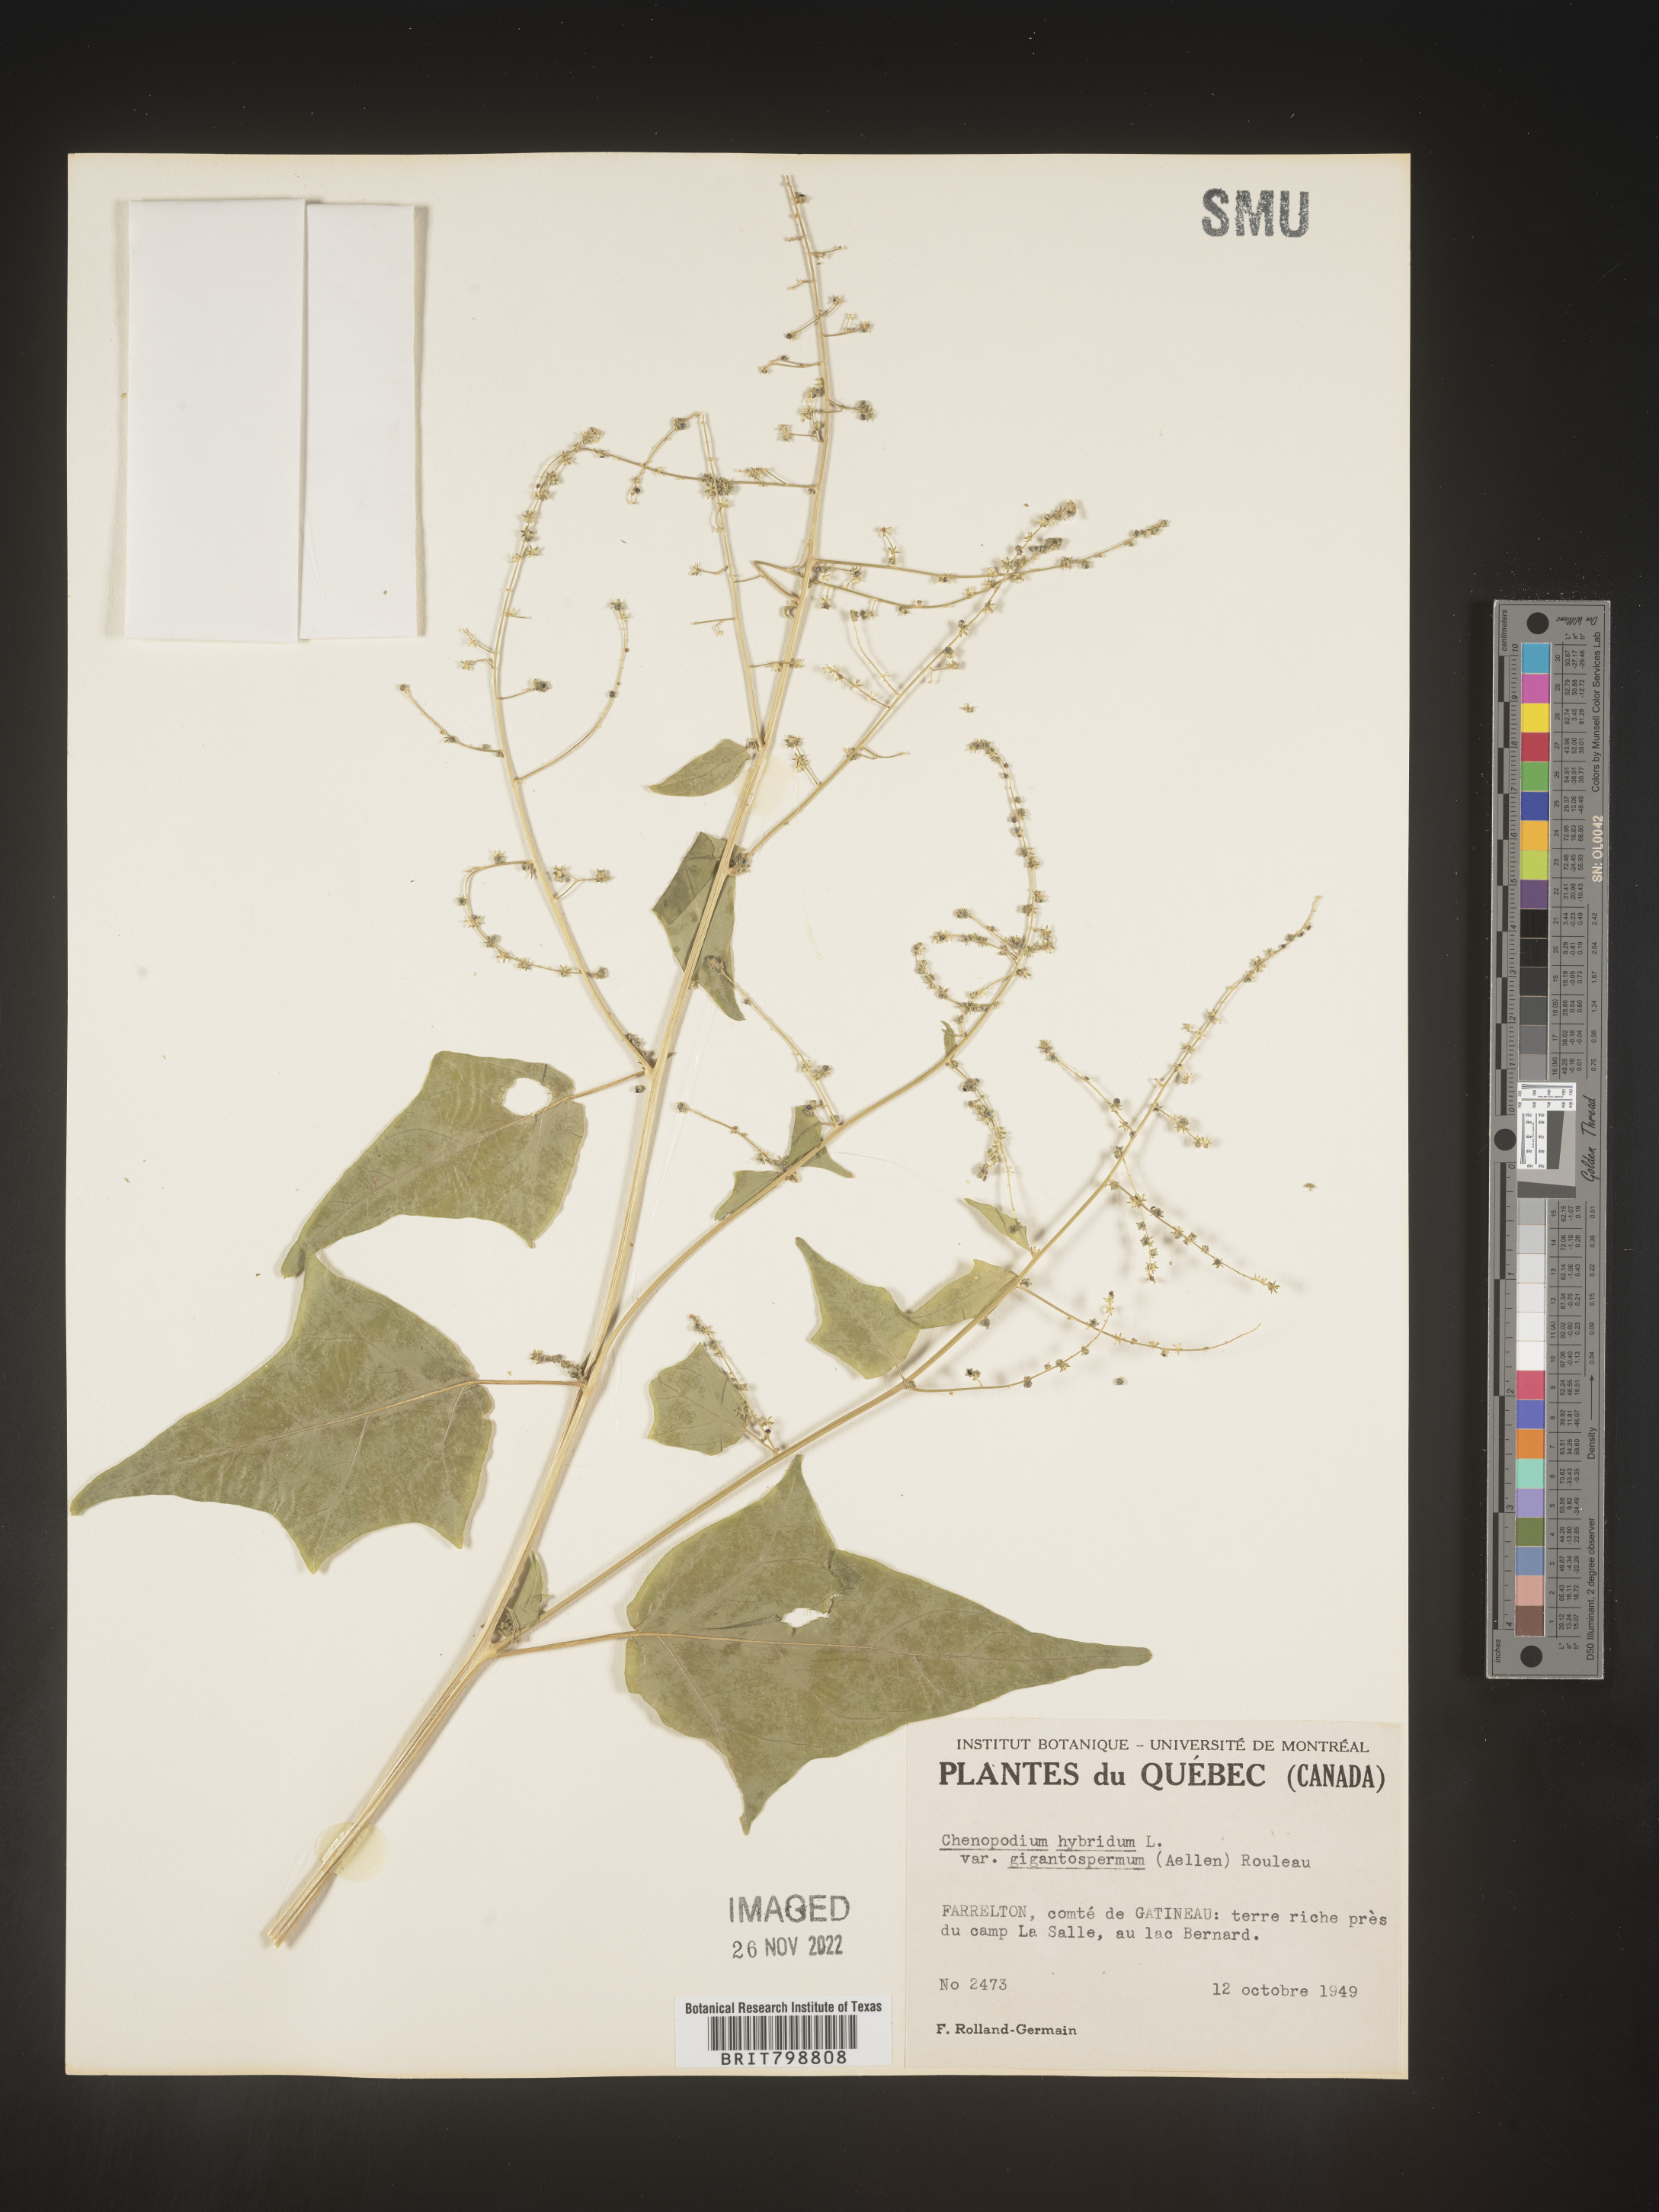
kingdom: Plantae
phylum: Tracheophyta
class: Magnoliopsida
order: Caryophyllales
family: Amaranthaceae
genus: Chenopodiastrum
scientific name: Chenopodiastrum simplex
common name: Large-seed goosefoot
